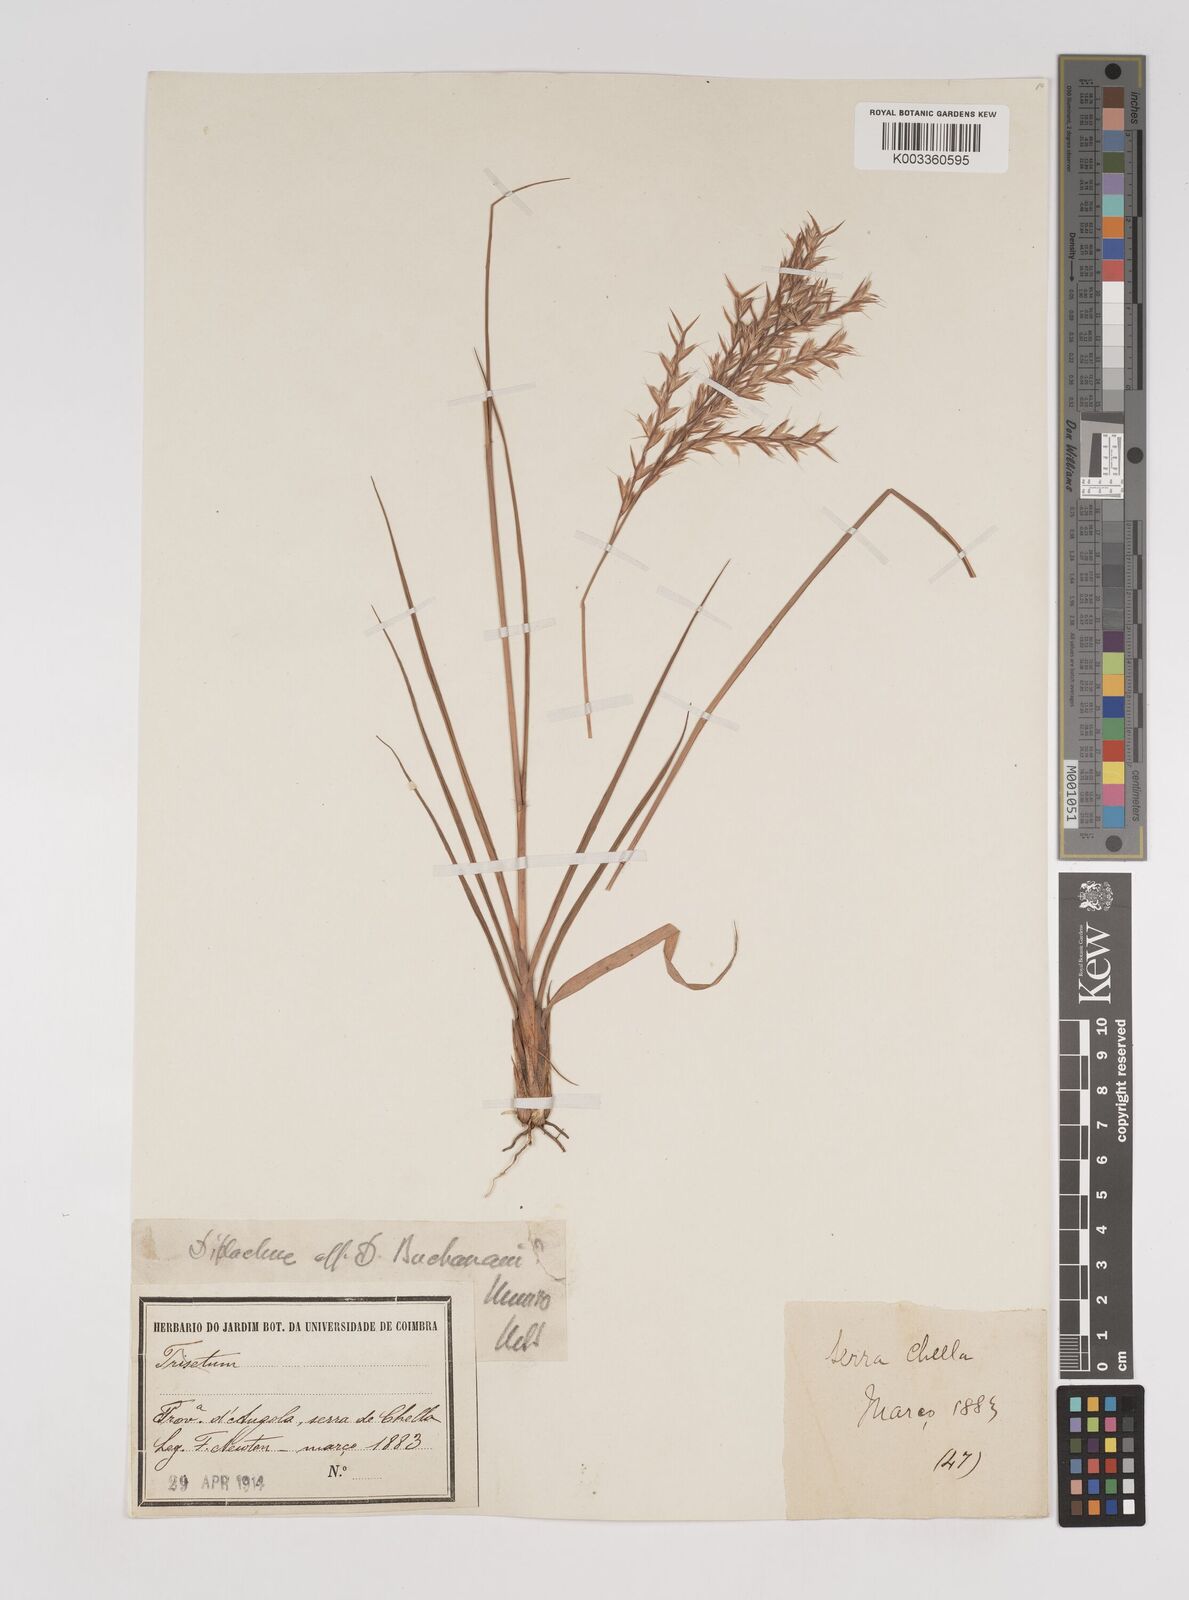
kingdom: Plantae
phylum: Tracheophyta
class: Liliopsida
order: Poales
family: Poaceae
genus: Bewsia
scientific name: Bewsia biflora
